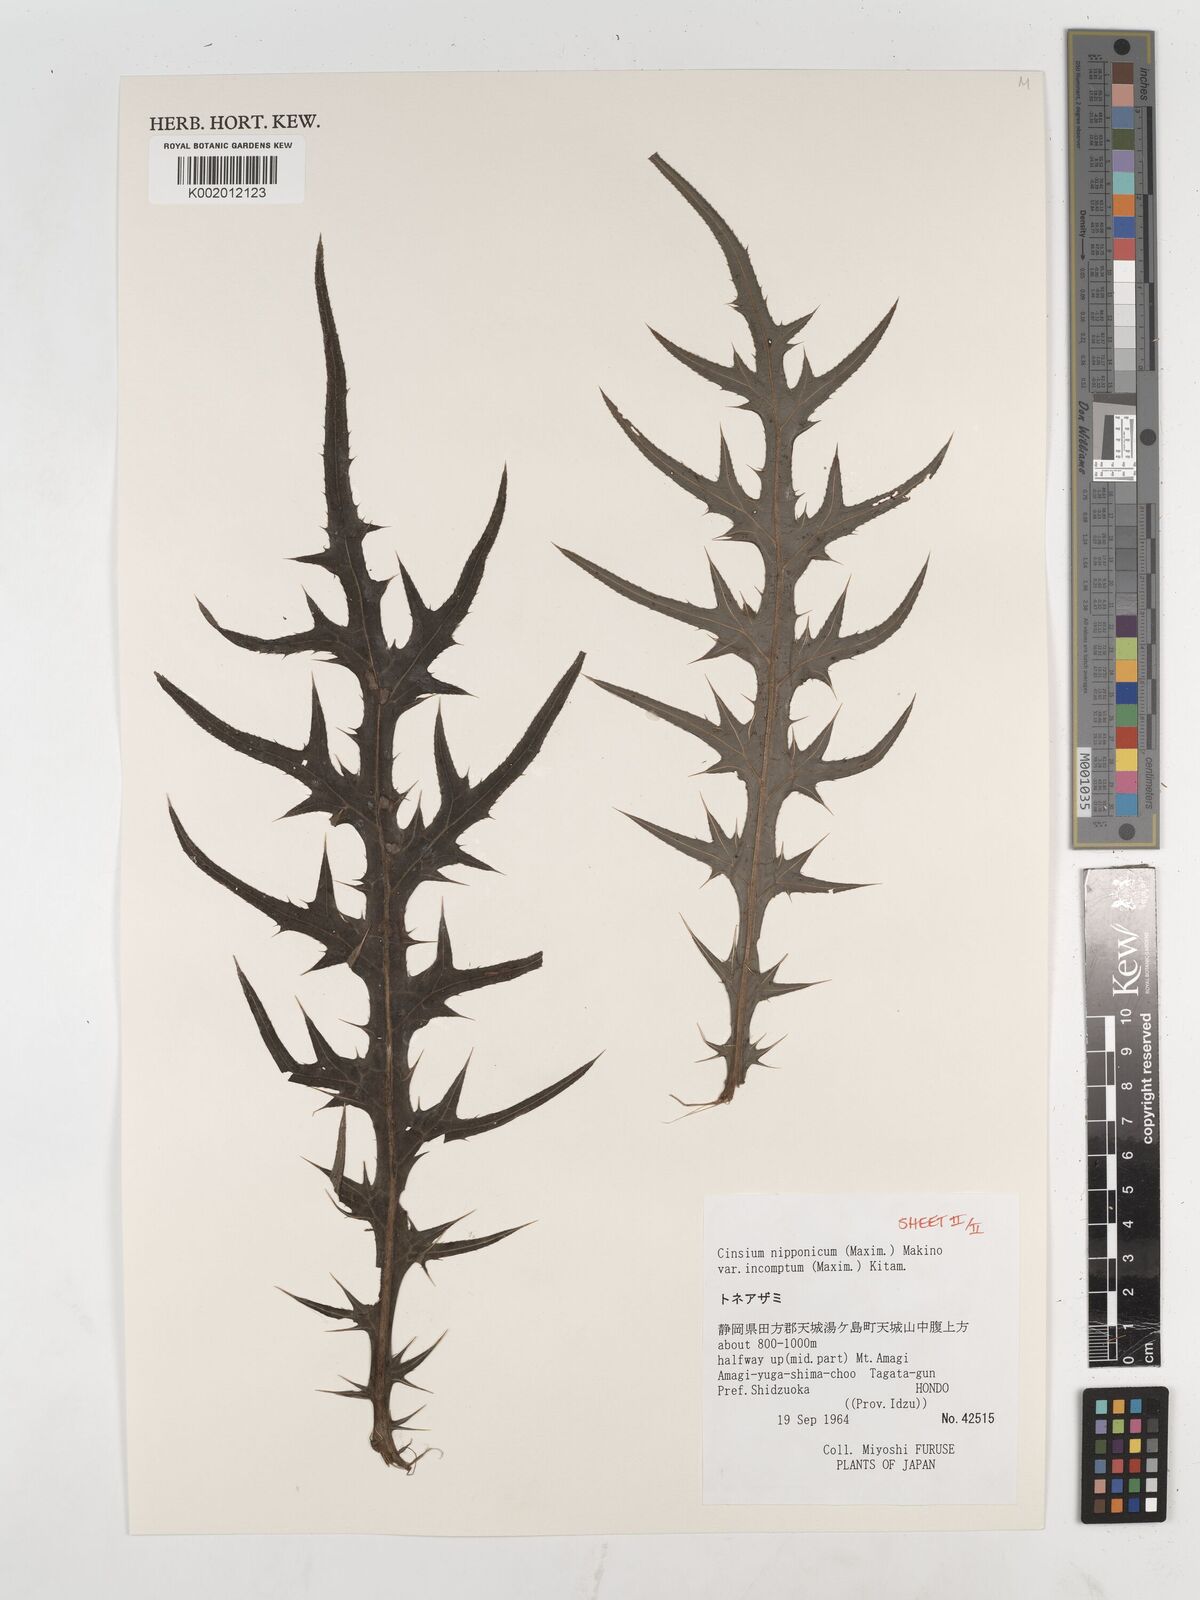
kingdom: Plantae
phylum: Tracheophyta
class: Magnoliopsida
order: Asterales
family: Asteraceae
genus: Cirsium
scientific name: Cirsium nipponicum
